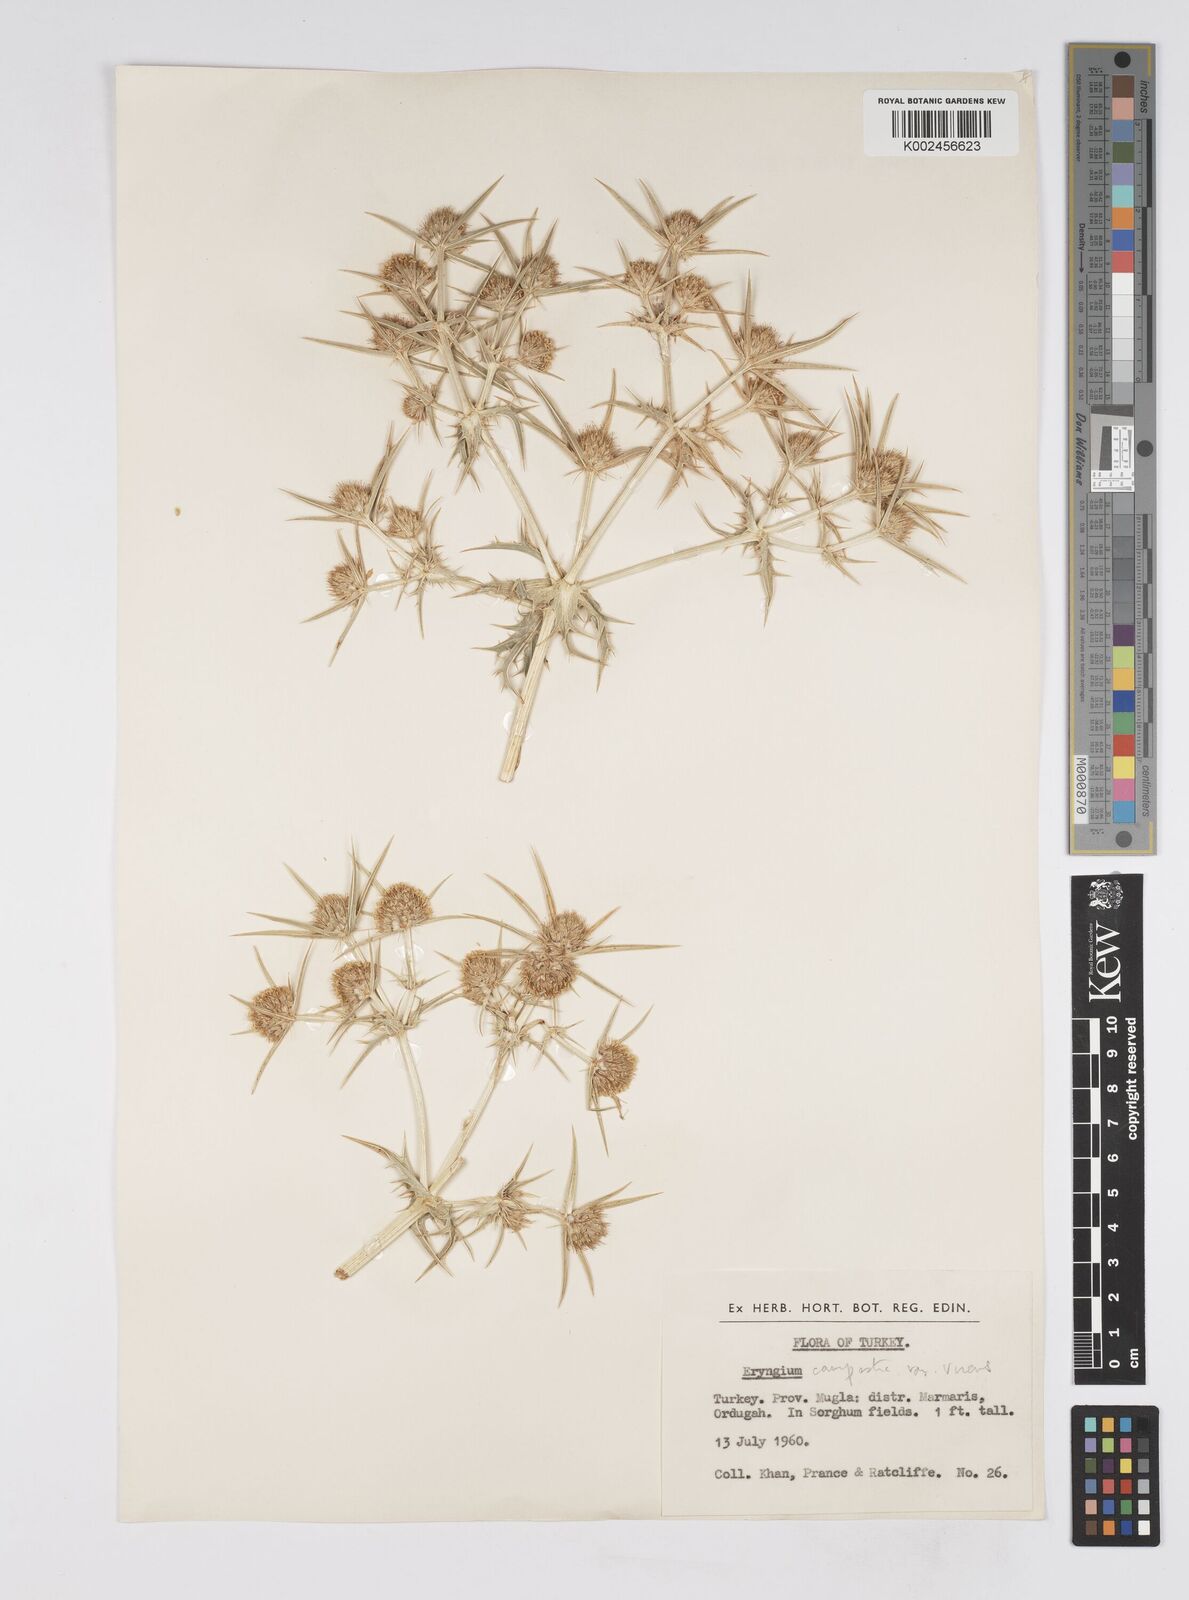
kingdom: Plantae
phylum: Tracheophyta
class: Magnoliopsida
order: Apiales
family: Apiaceae
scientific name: Apiaceae
